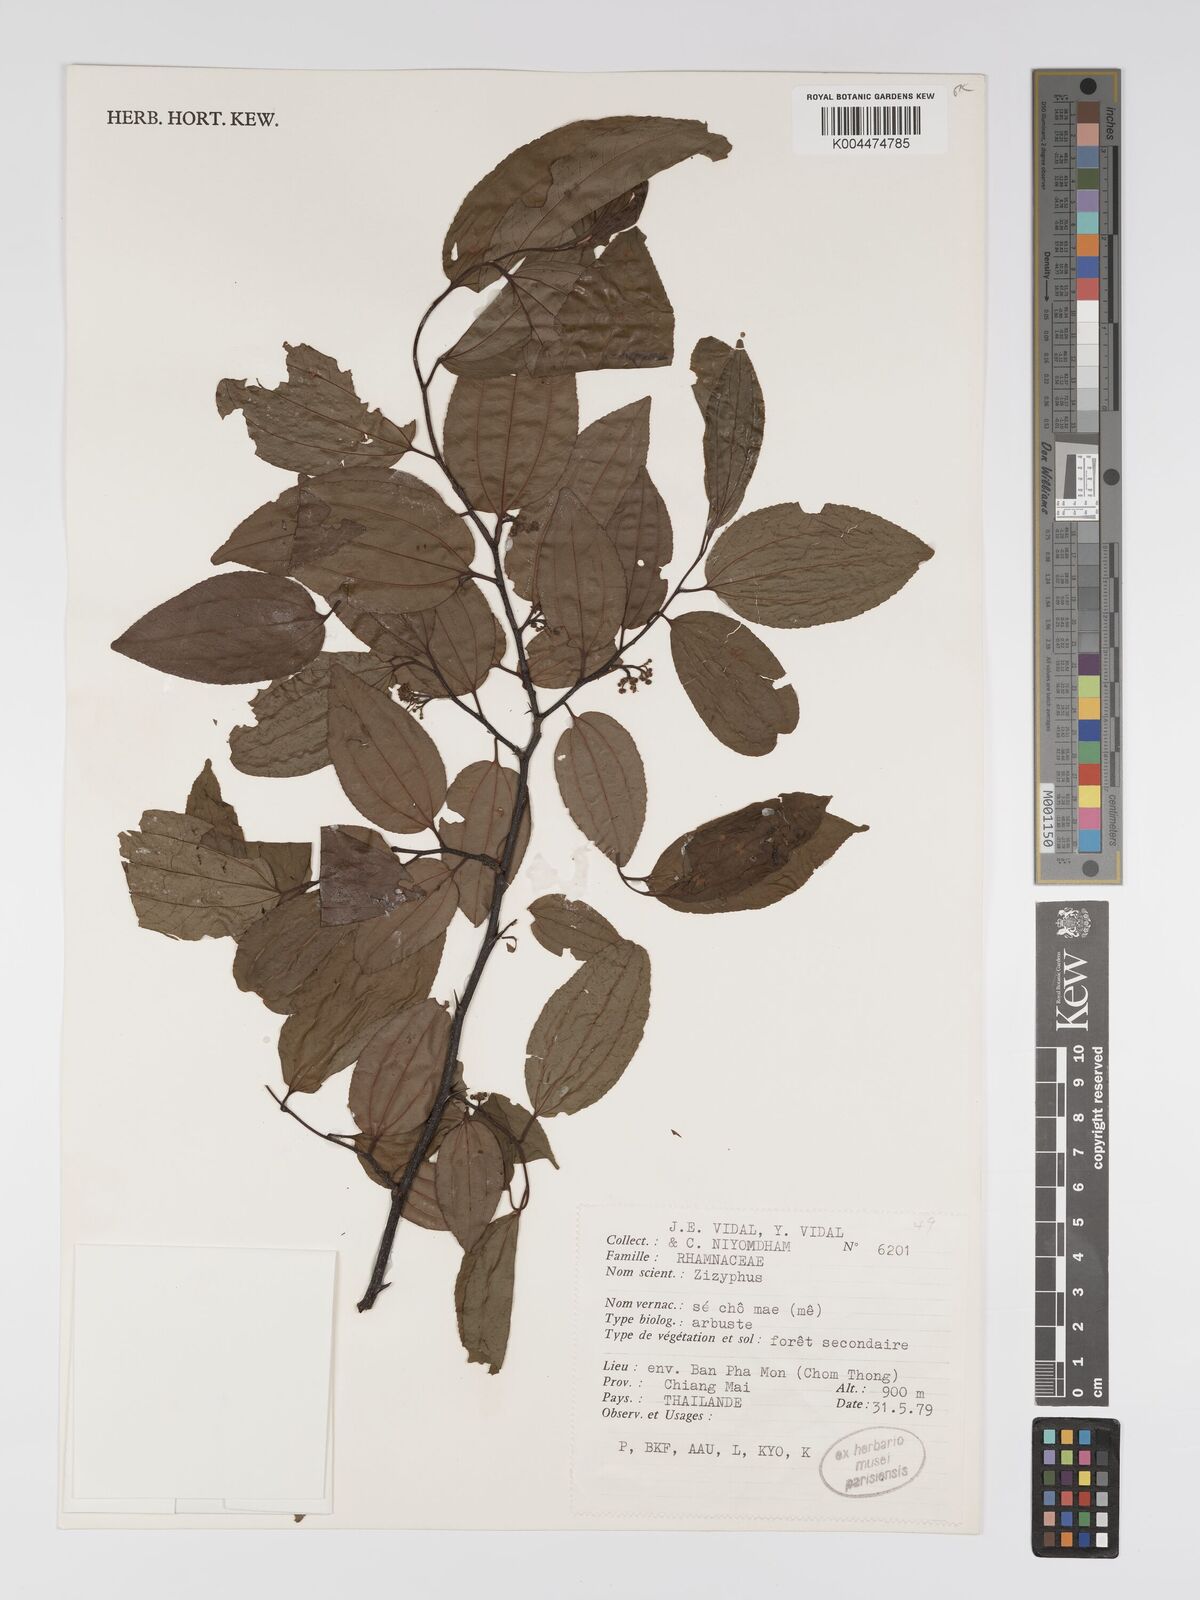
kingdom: Plantae
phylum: Tracheophyta
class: Magnoliopsida
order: Rosales
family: Rhamnaceae
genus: Ziziphus
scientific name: Ziziphus incurva
